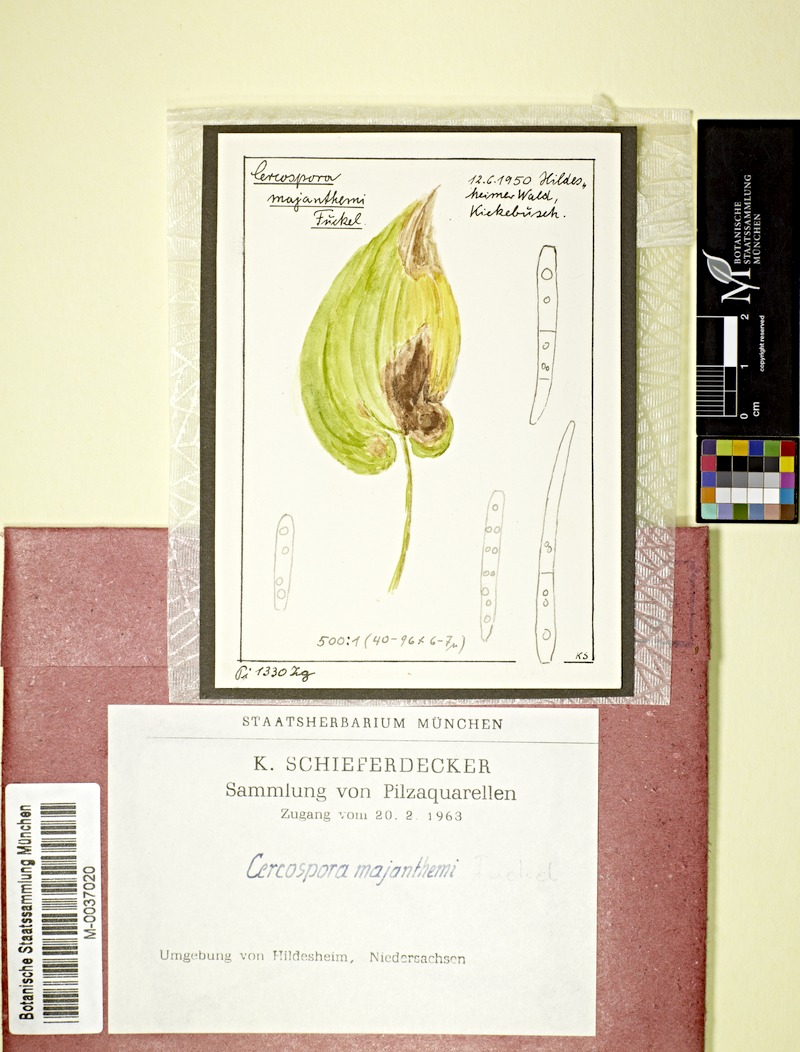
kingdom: Fungi
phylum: Ascomycota
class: Dothideomycetes
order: Mycosphaerellales
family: Mycosphaerellaceae
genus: Cercospora
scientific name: Cercospora maianthemi
